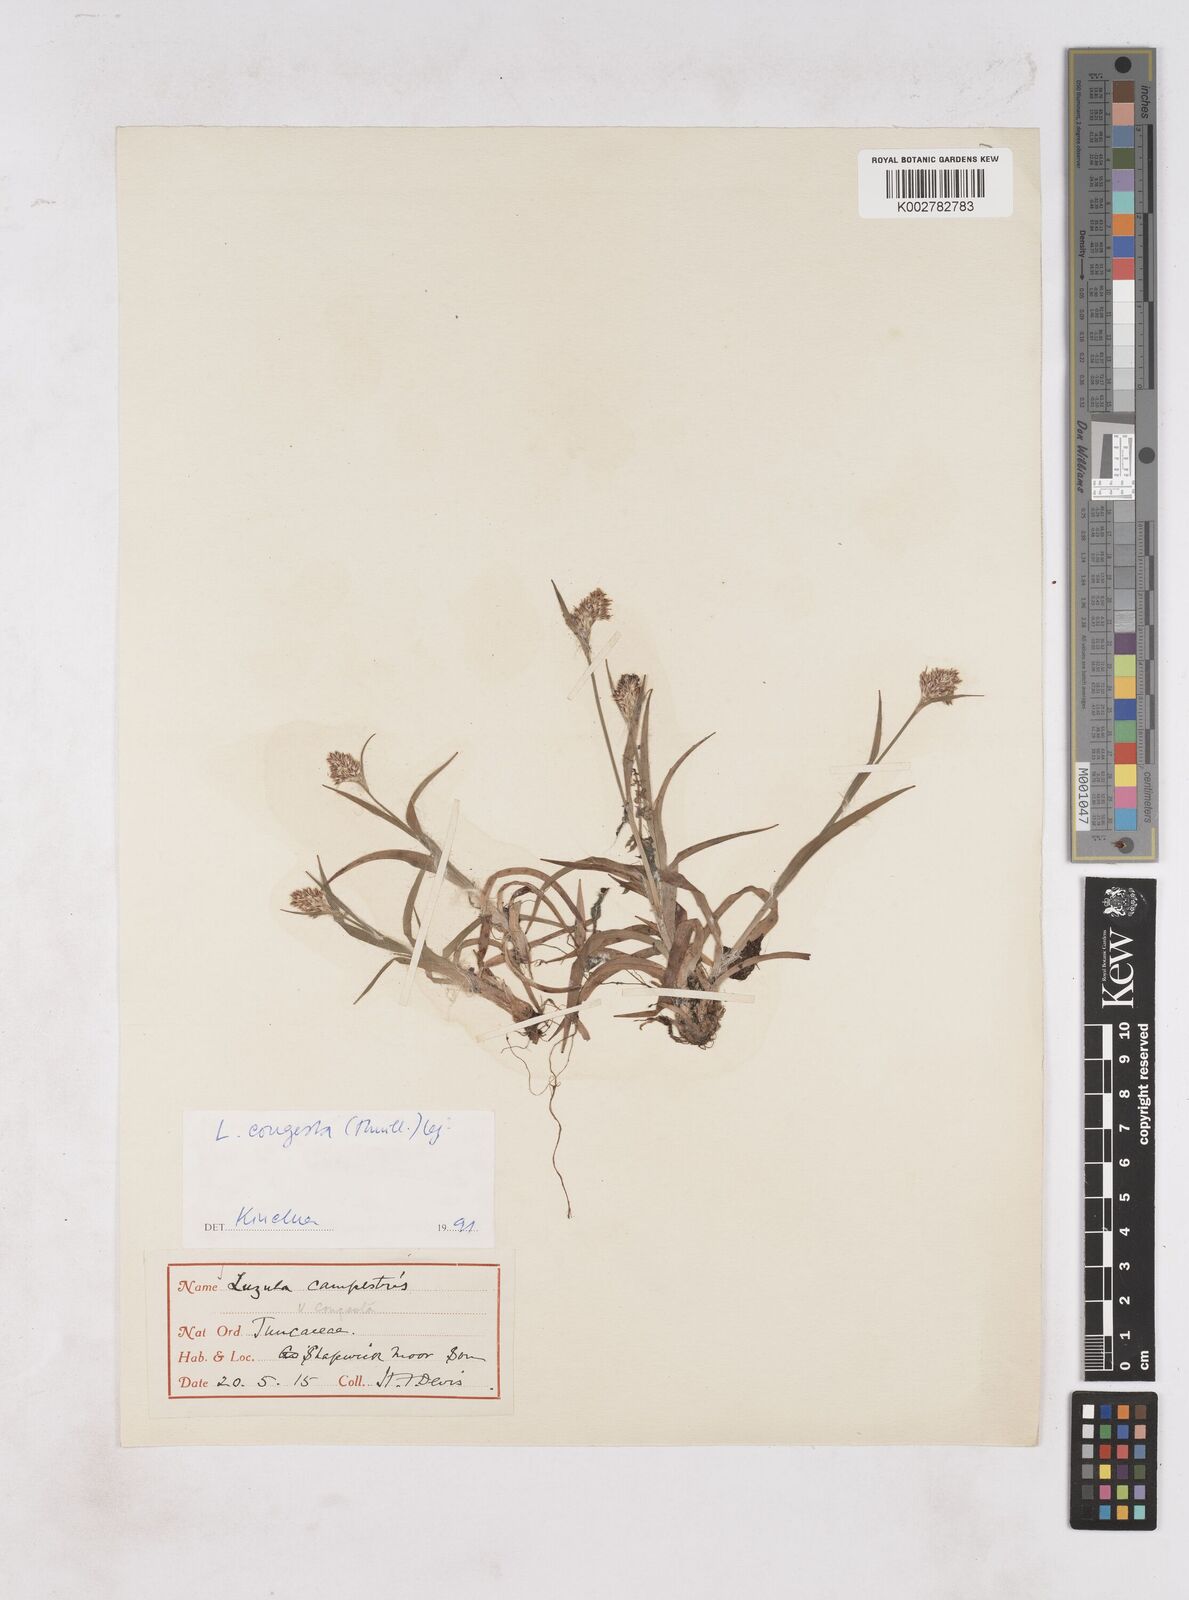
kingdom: Plantae
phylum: Tracheophyta
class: Liliopsida
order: Poales
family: Juncaceae
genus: Luzula
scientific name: Luzula campestris
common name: Field wood-rush
